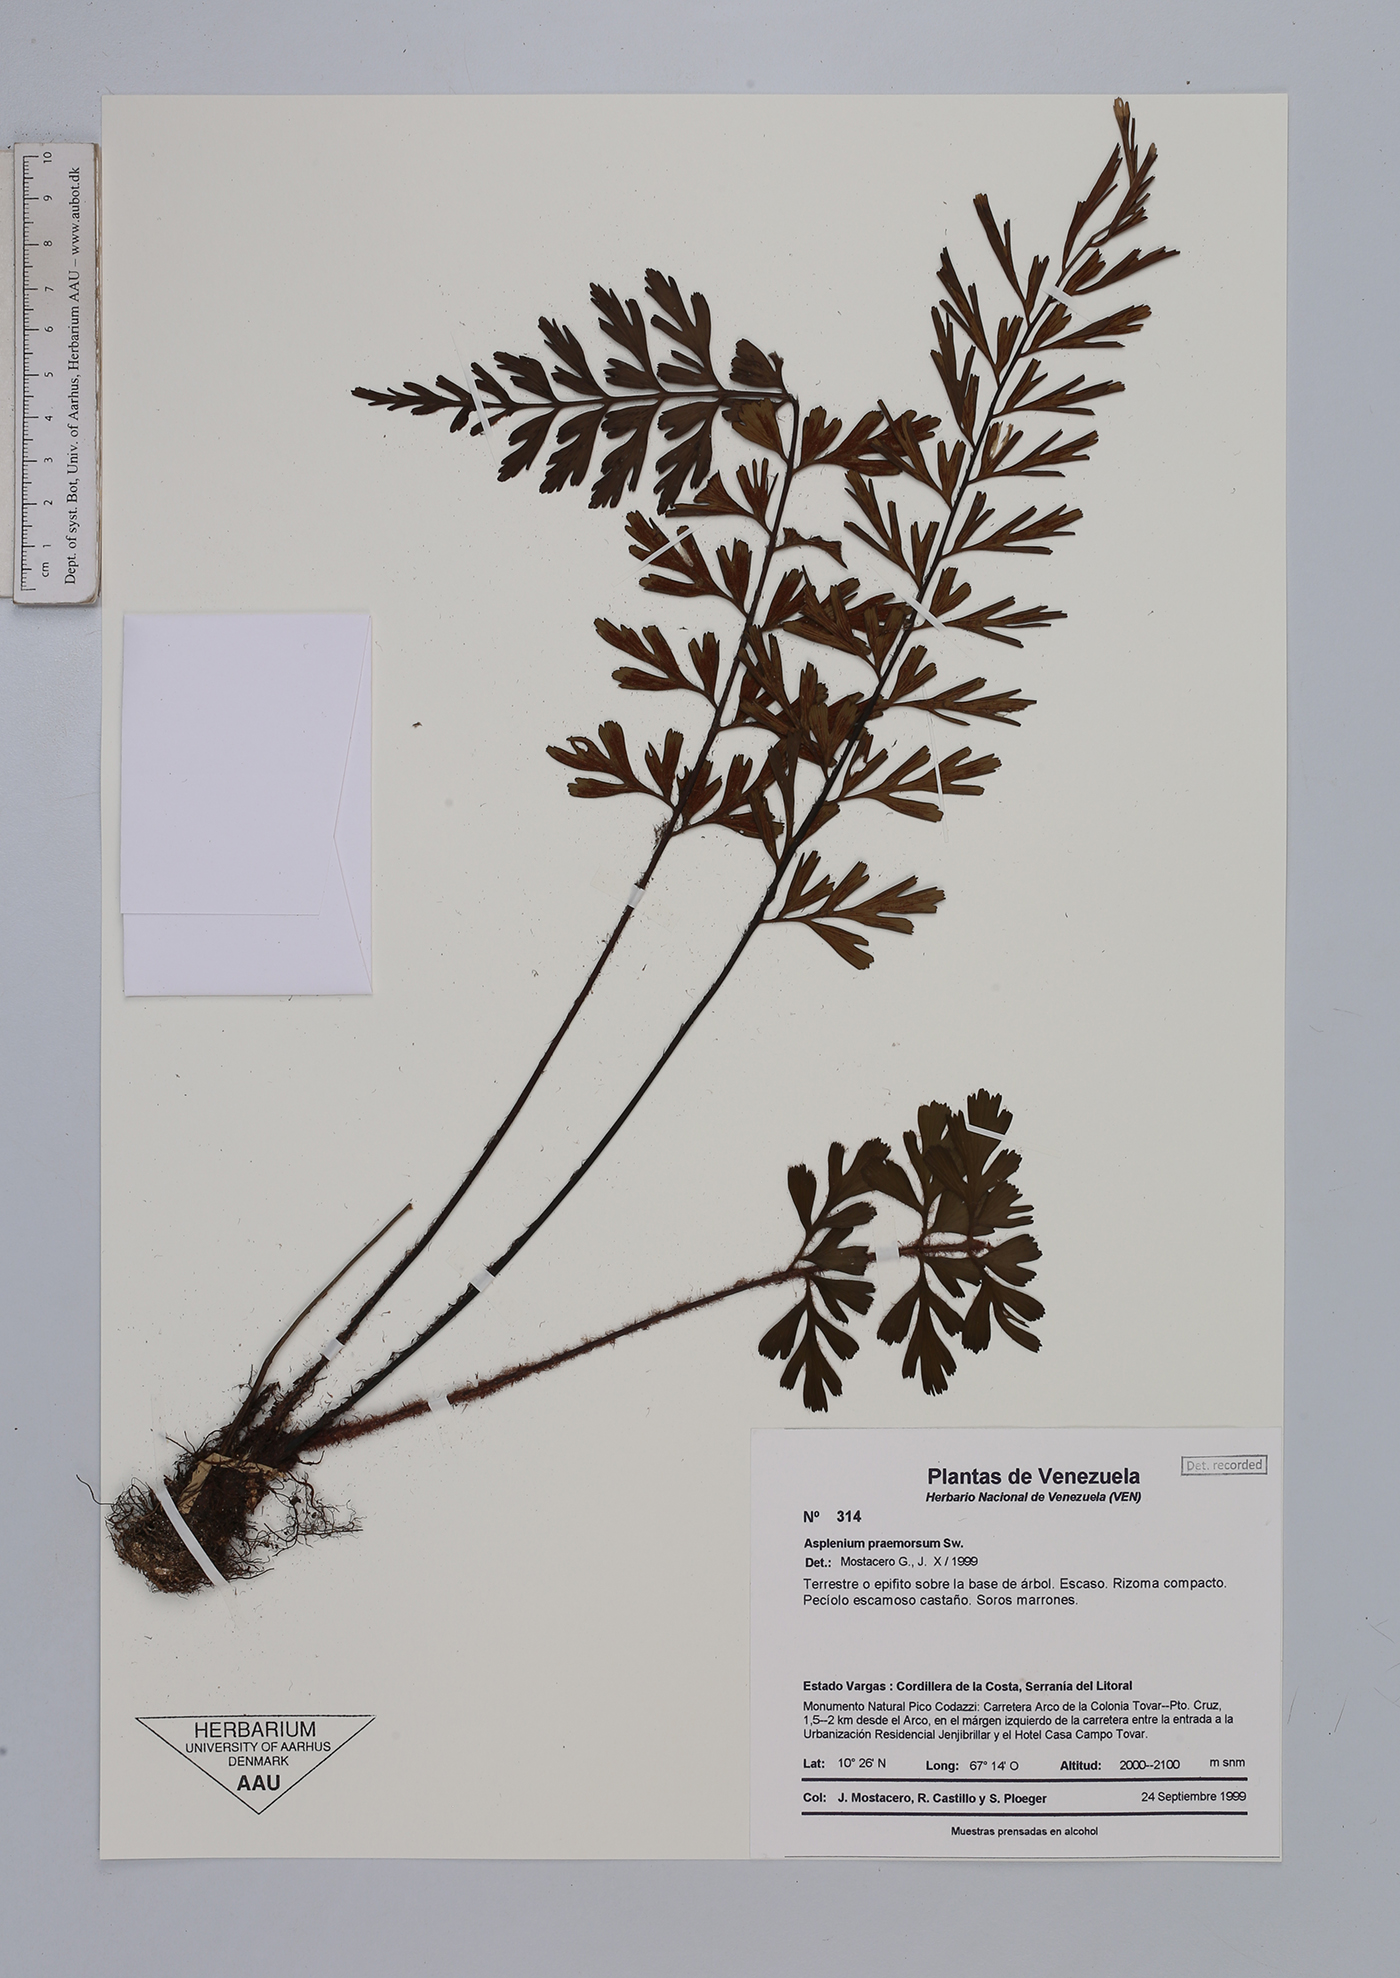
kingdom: Plantae
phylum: Tracheophyta
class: Polypodiopsida
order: Polypodiales
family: Aspleniaceae
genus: Asplenium
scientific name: Asplenium praemorsum
